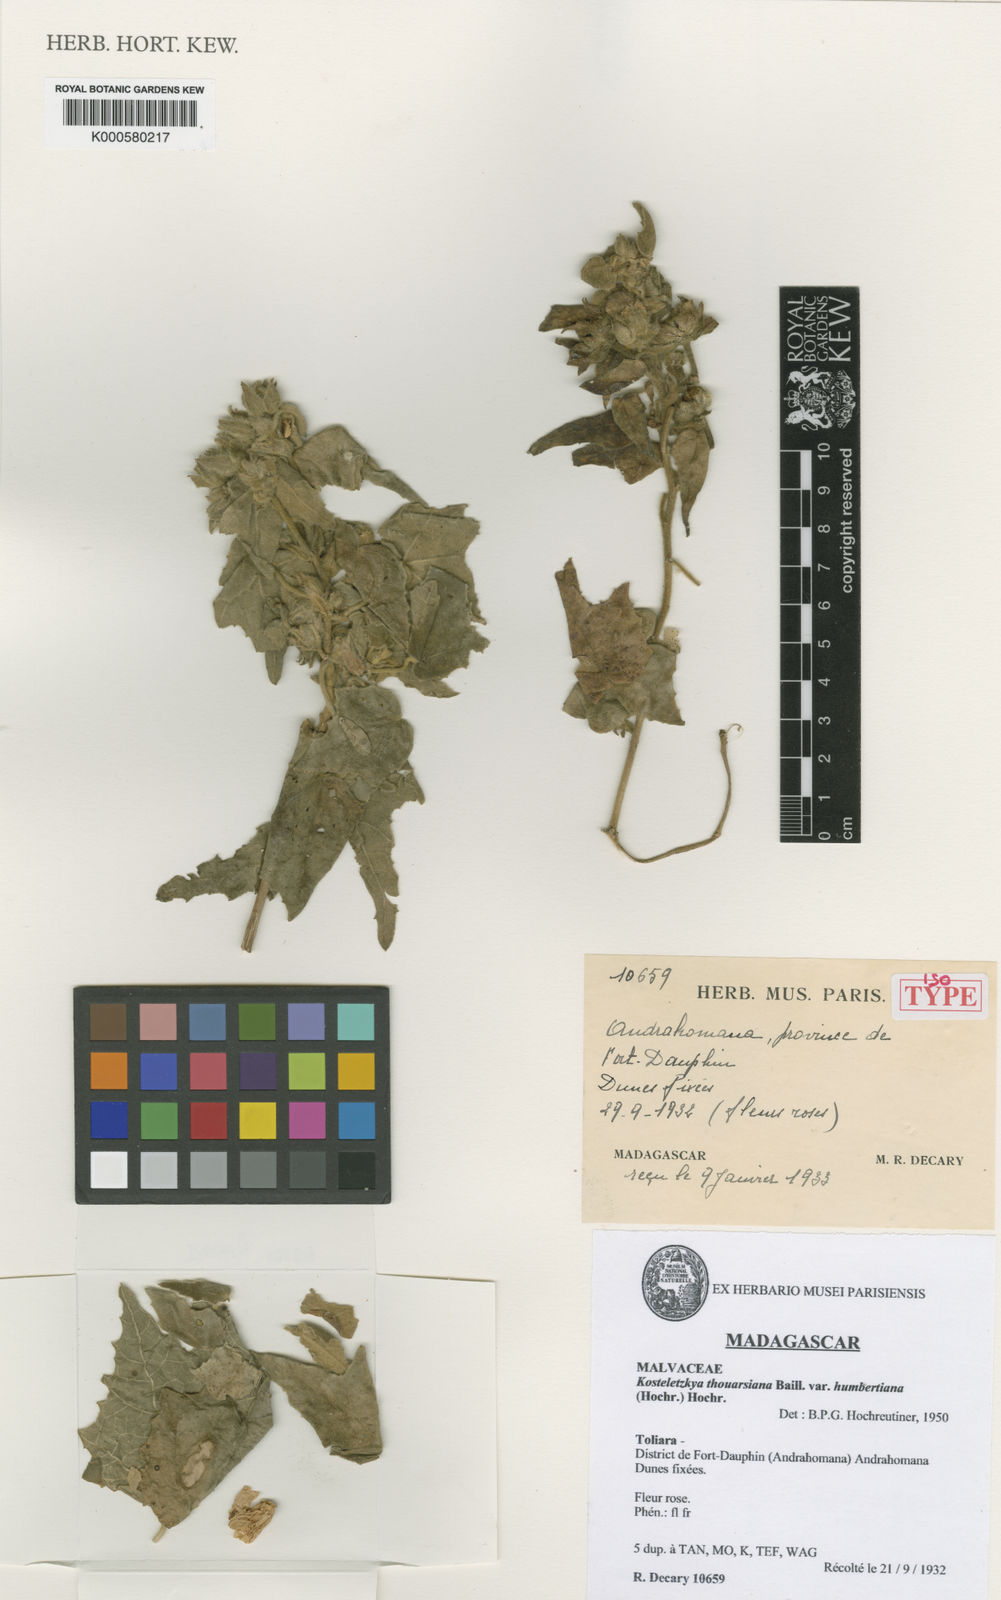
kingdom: Plantae
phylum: Tracheophyta
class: Magnoliopsida
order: Malvales
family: Malvaceae
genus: Perrierophytum
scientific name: Perrierophytum thouarsianum
